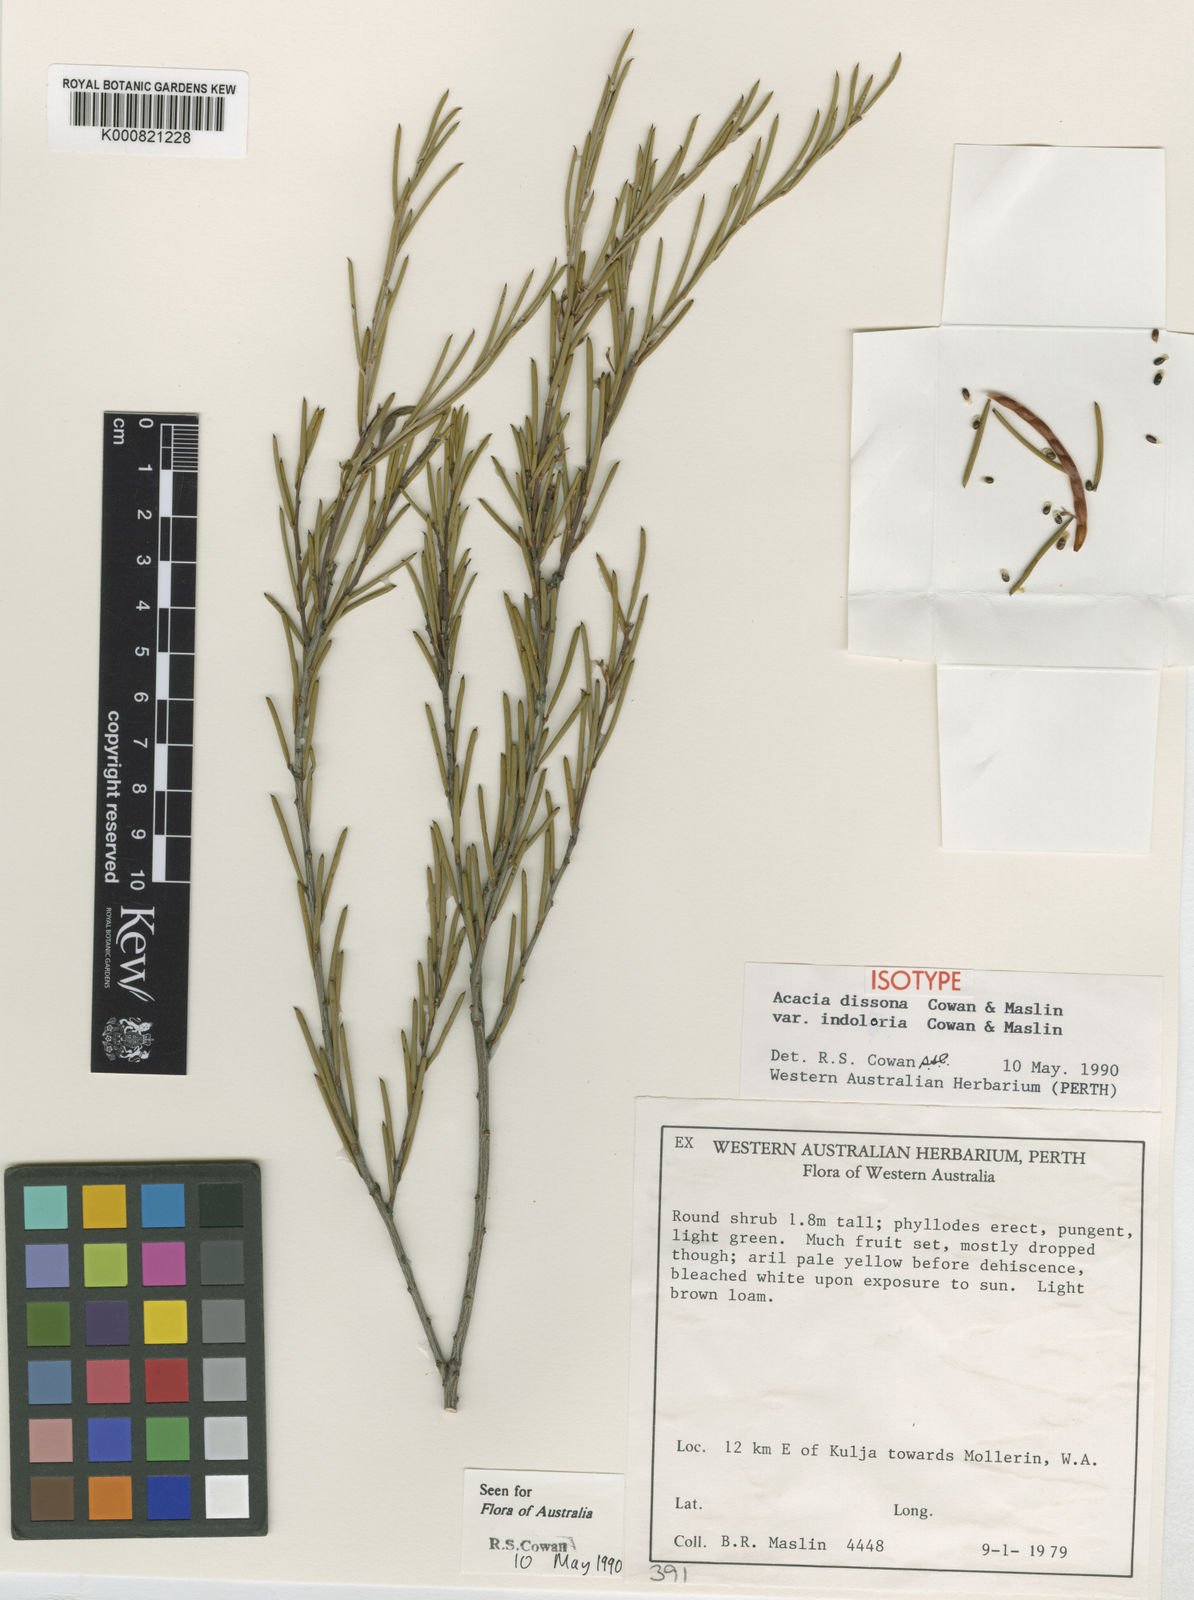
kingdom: Plantae
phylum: Tracheophyta
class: Magnoliopsida
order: Fabales
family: Fabaceae
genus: Acacia
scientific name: Acacia dissona
